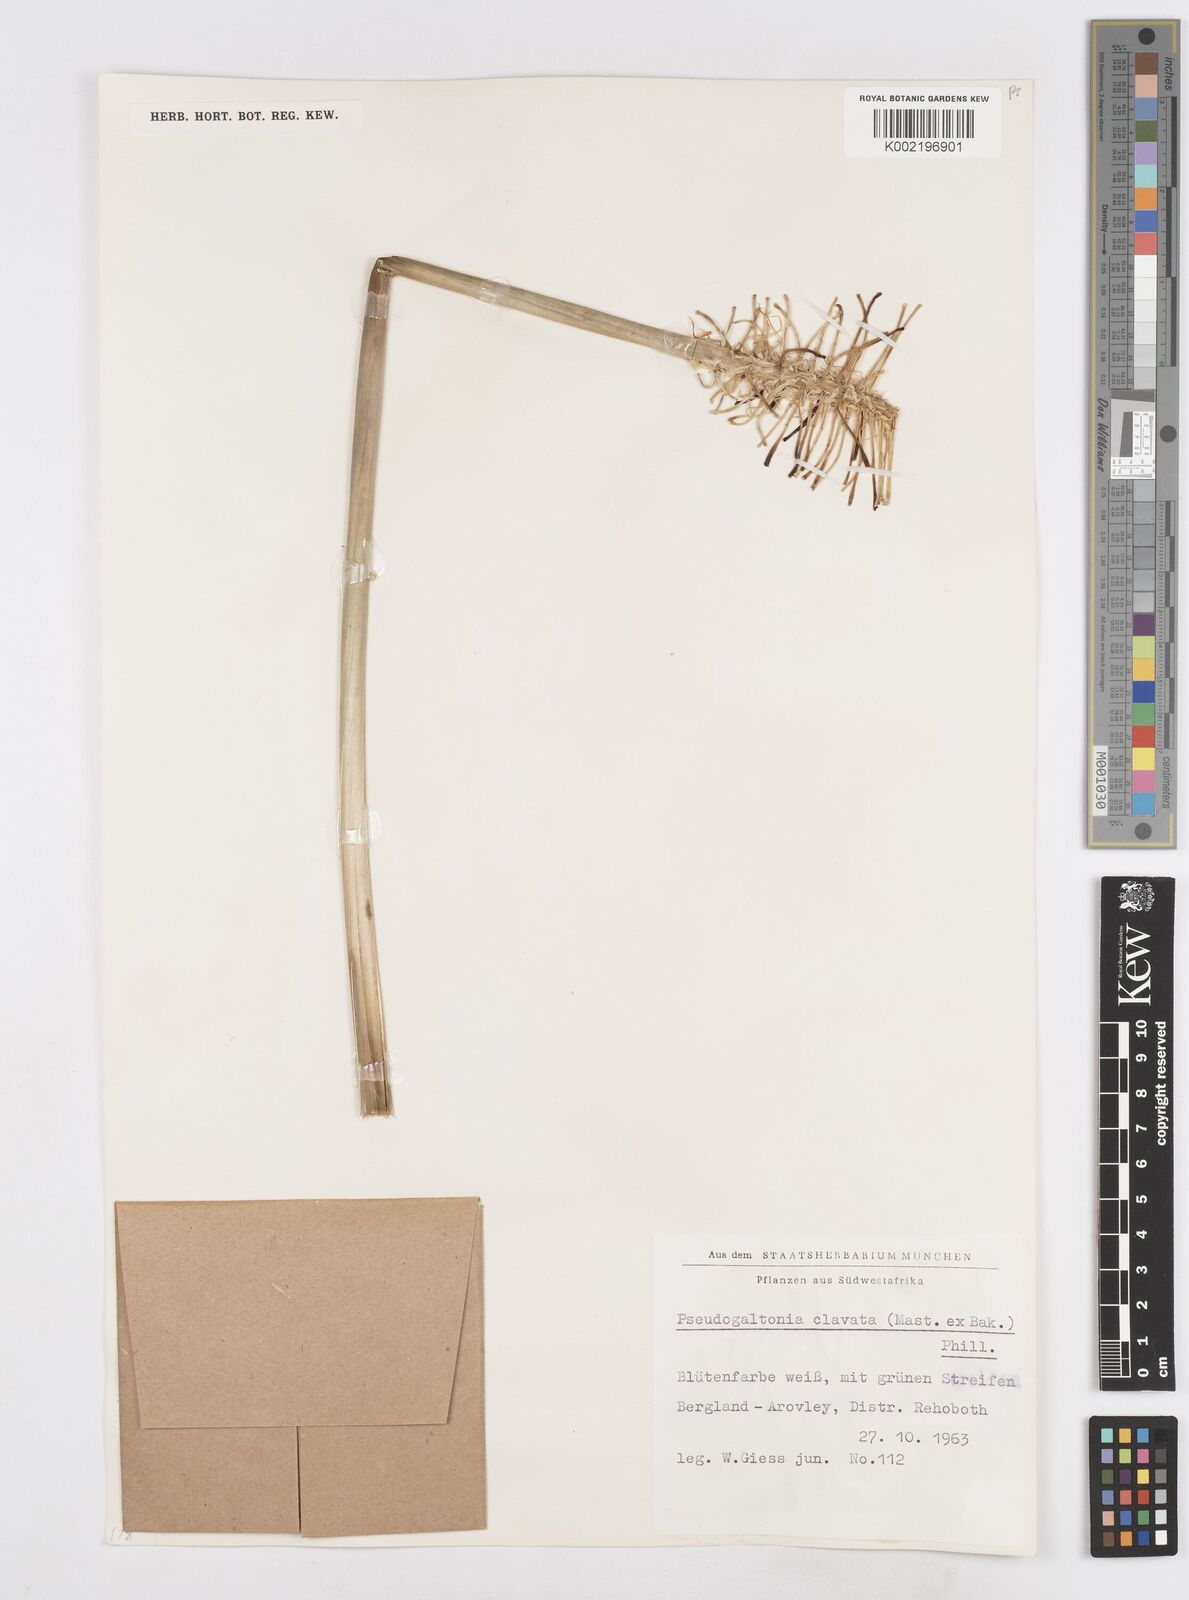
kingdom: Plantae
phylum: Tracheophyta
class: Liliopsida
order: Asparagales
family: Asparagaceae
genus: Pseudogaltonia
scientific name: Pseudogaltonia clavata
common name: South west african slangkop
